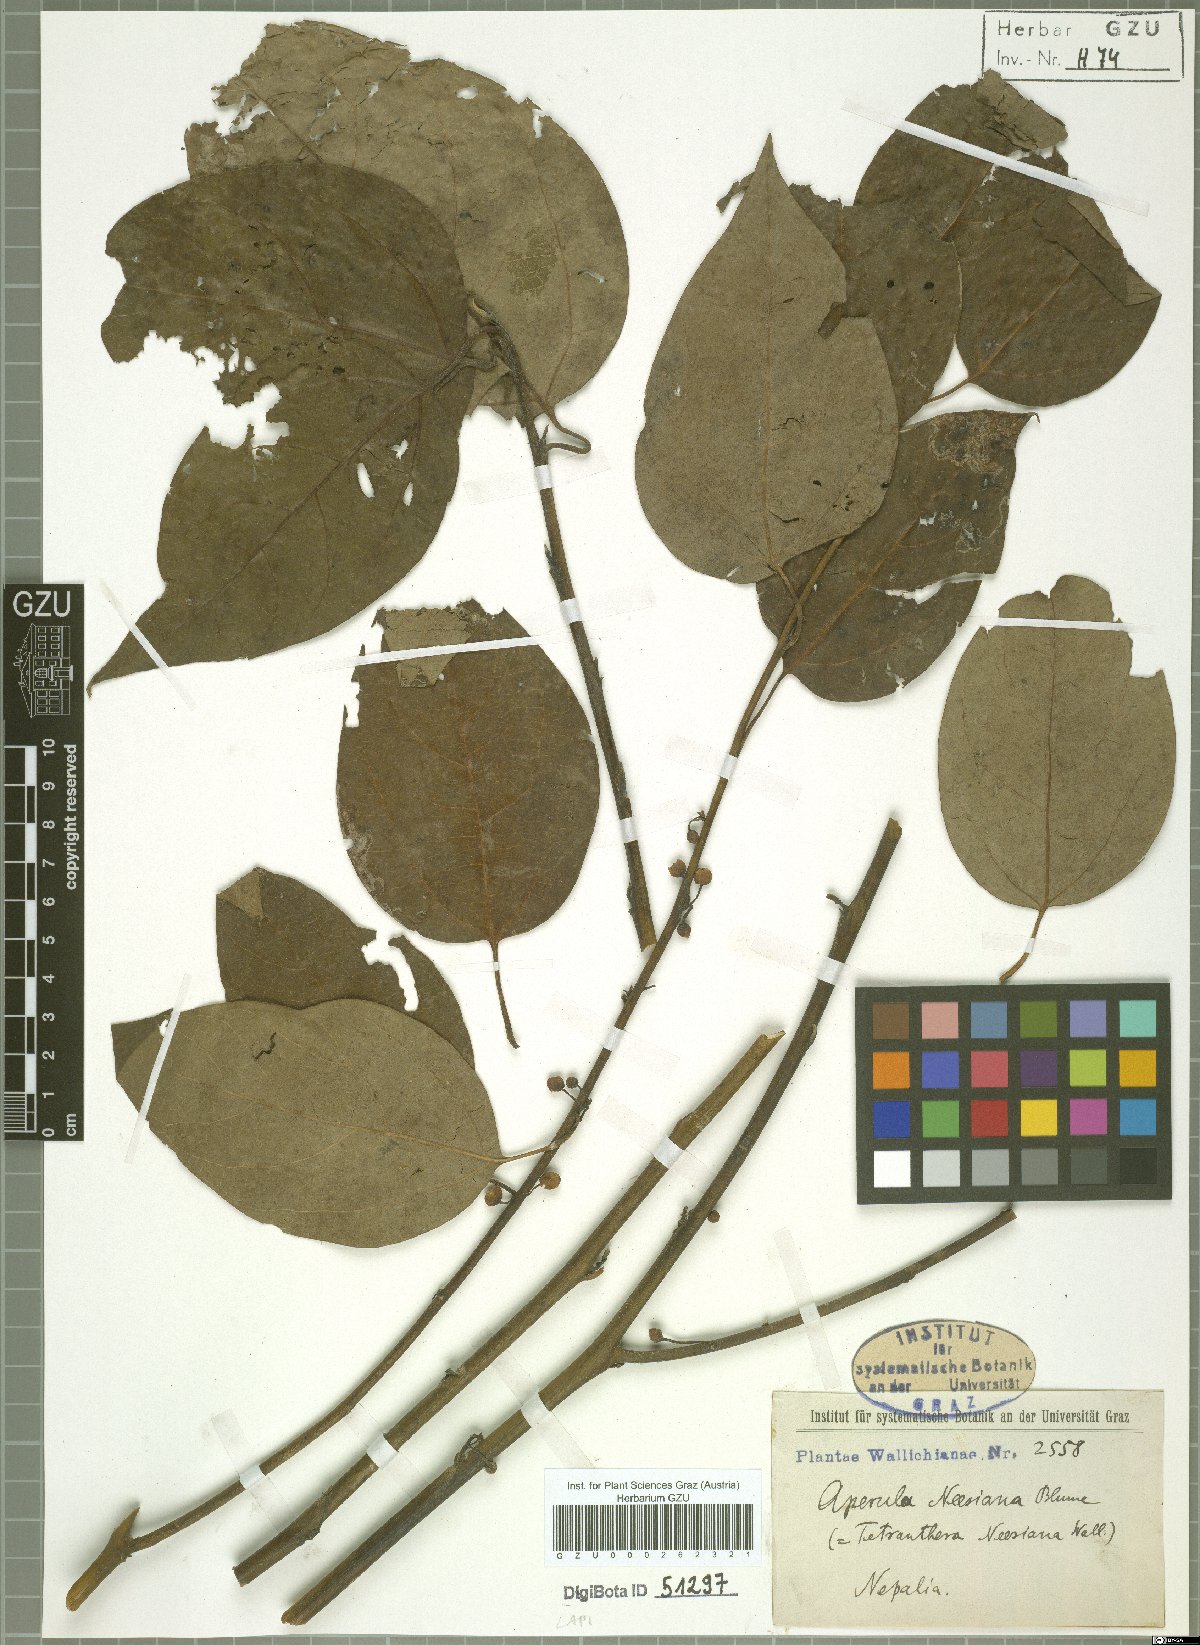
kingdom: Plantae
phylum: Tracheophyta
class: Magnoliopsida
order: Laurales
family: Lauraceae
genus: Lindera
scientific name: Lindera neesiana
